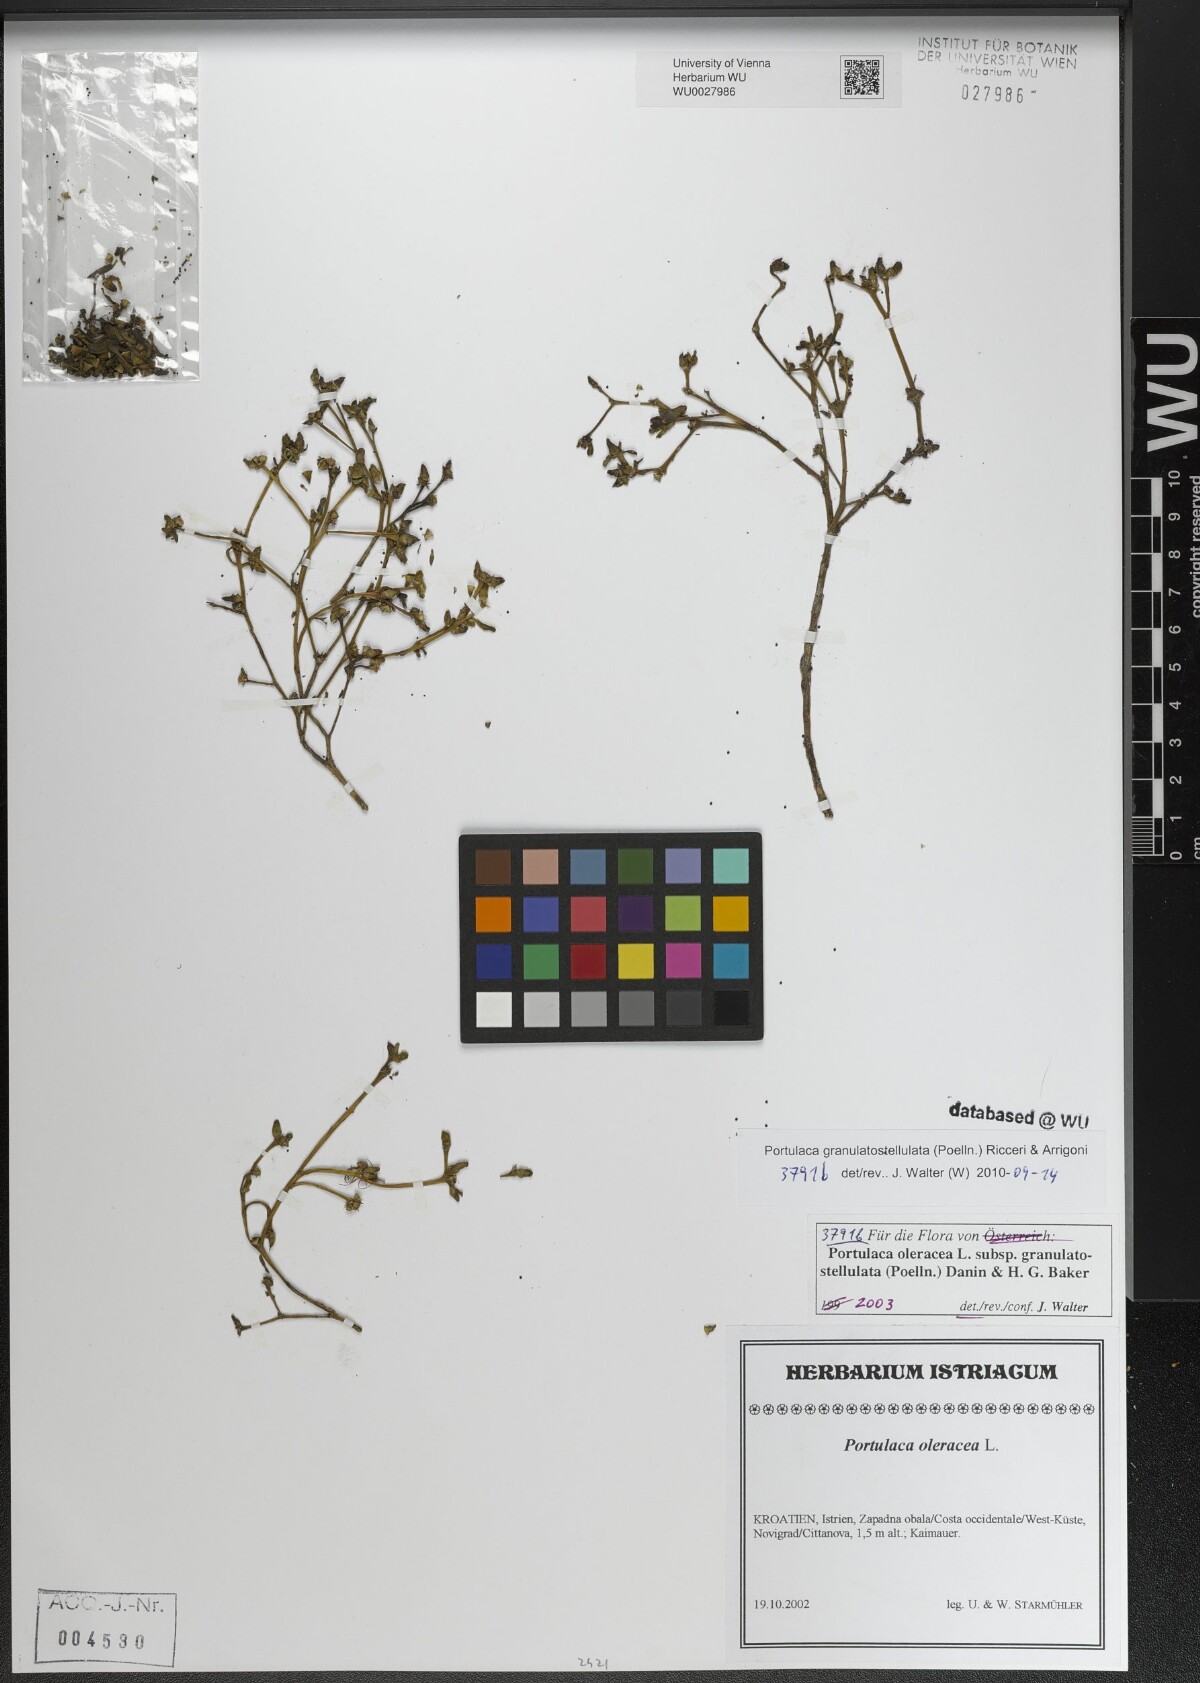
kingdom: Plantae
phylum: Tracheophyta
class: Magnoliopsida
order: Caryophyllales
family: Portulacaceae
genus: Portulaca
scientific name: Portulaca granulatostellulata
